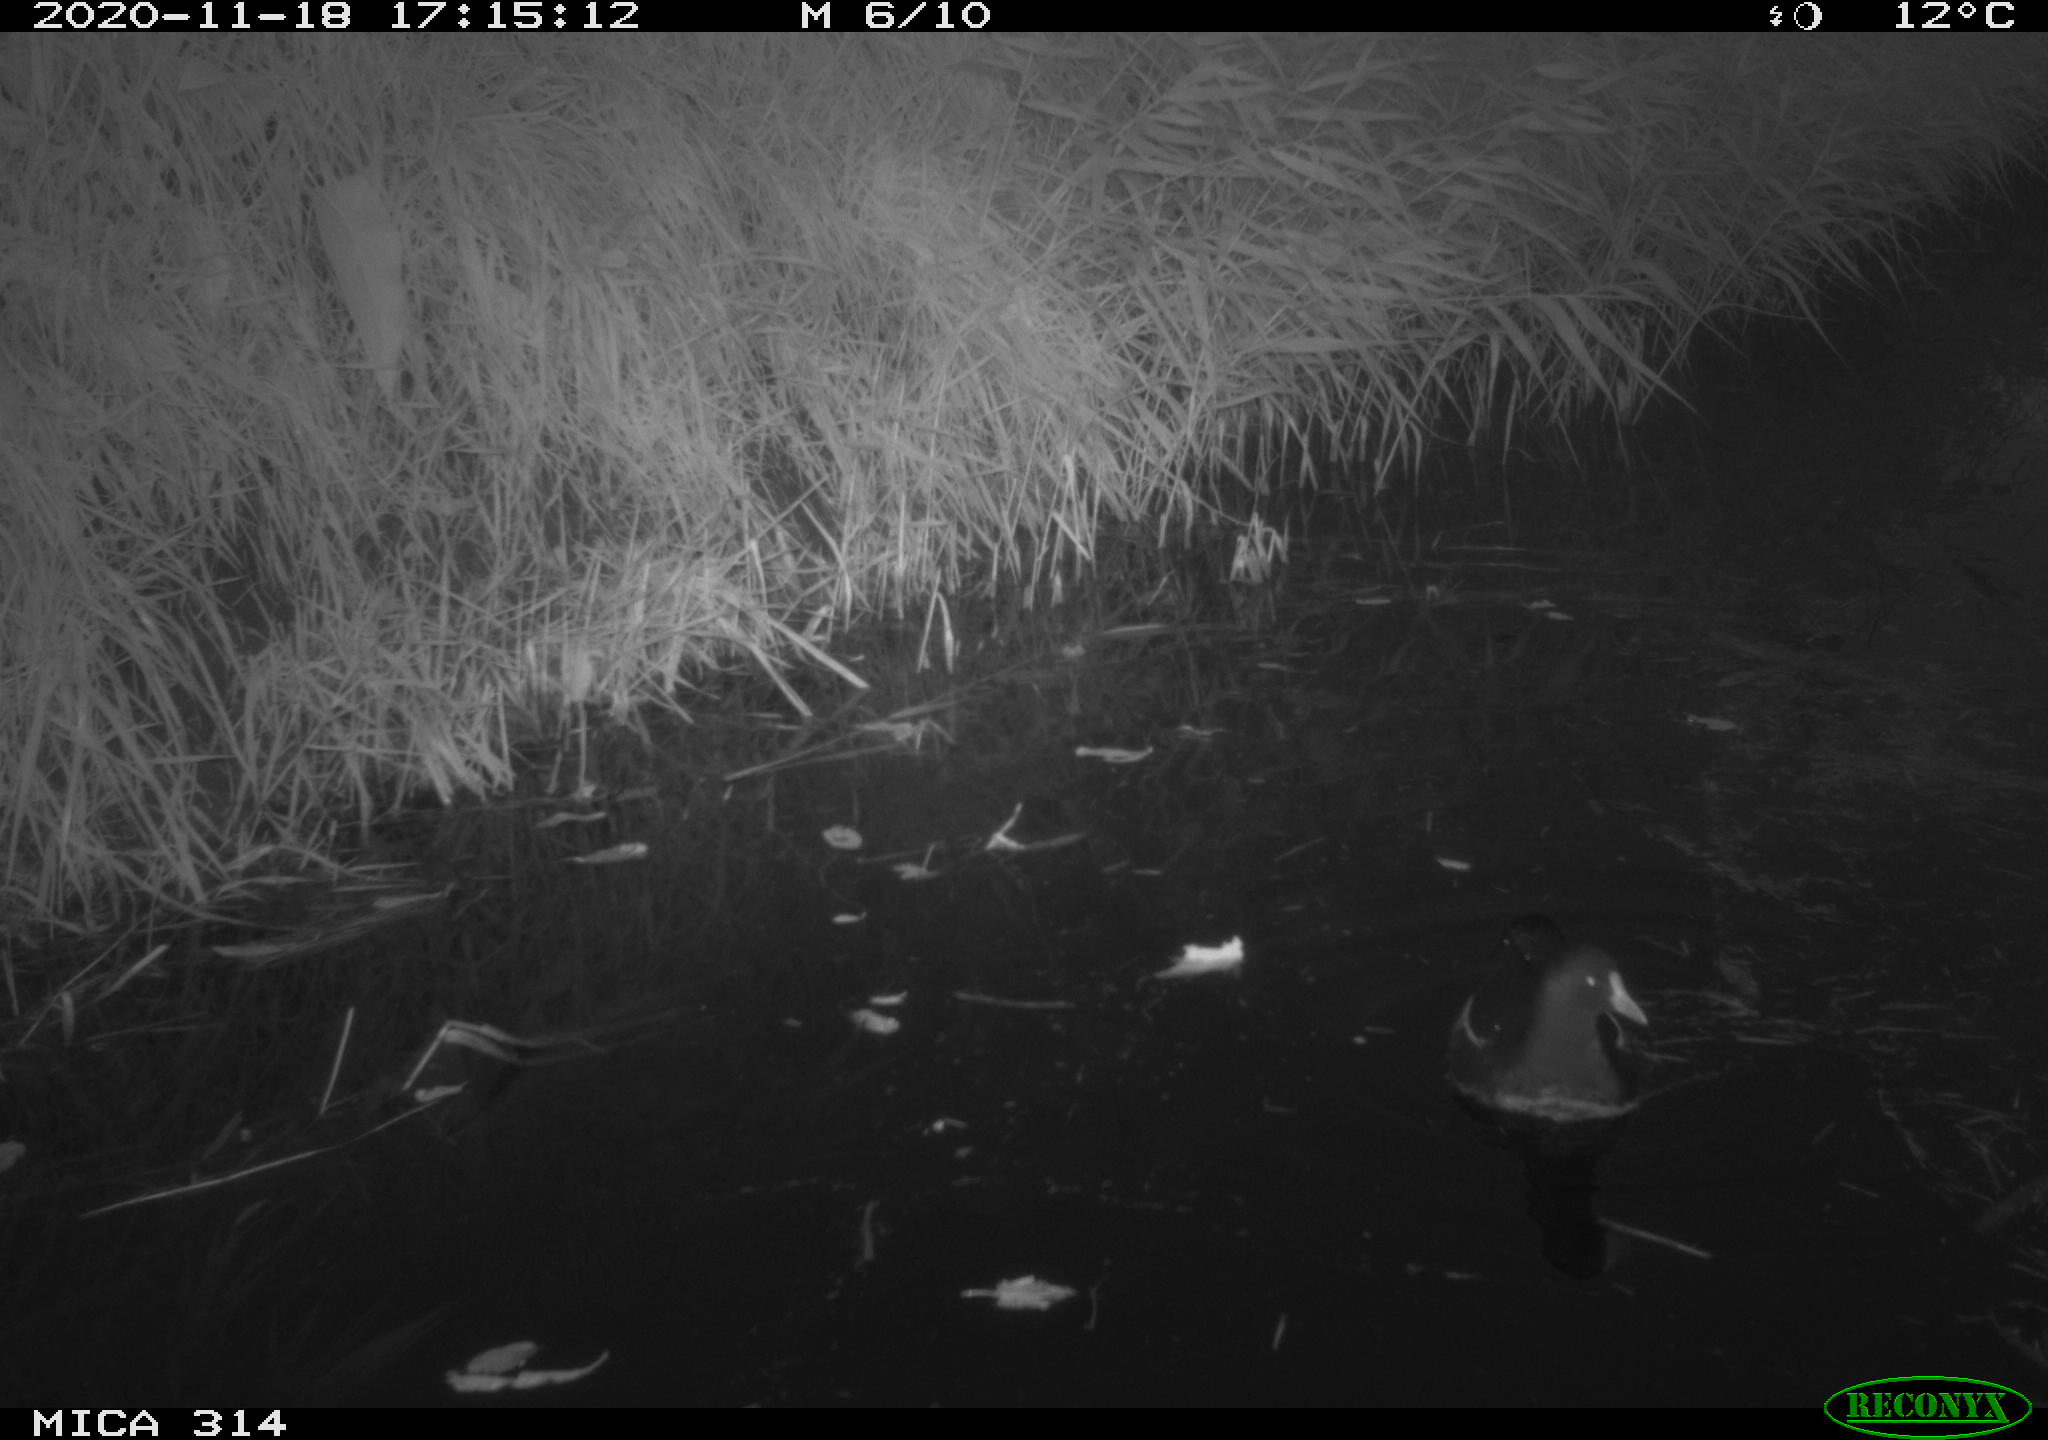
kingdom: Animalia
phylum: Chordata
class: Aves
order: Gruiformes
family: Rallidae
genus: Gallinula
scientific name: Gallinula chloropus
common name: Common moorhen
